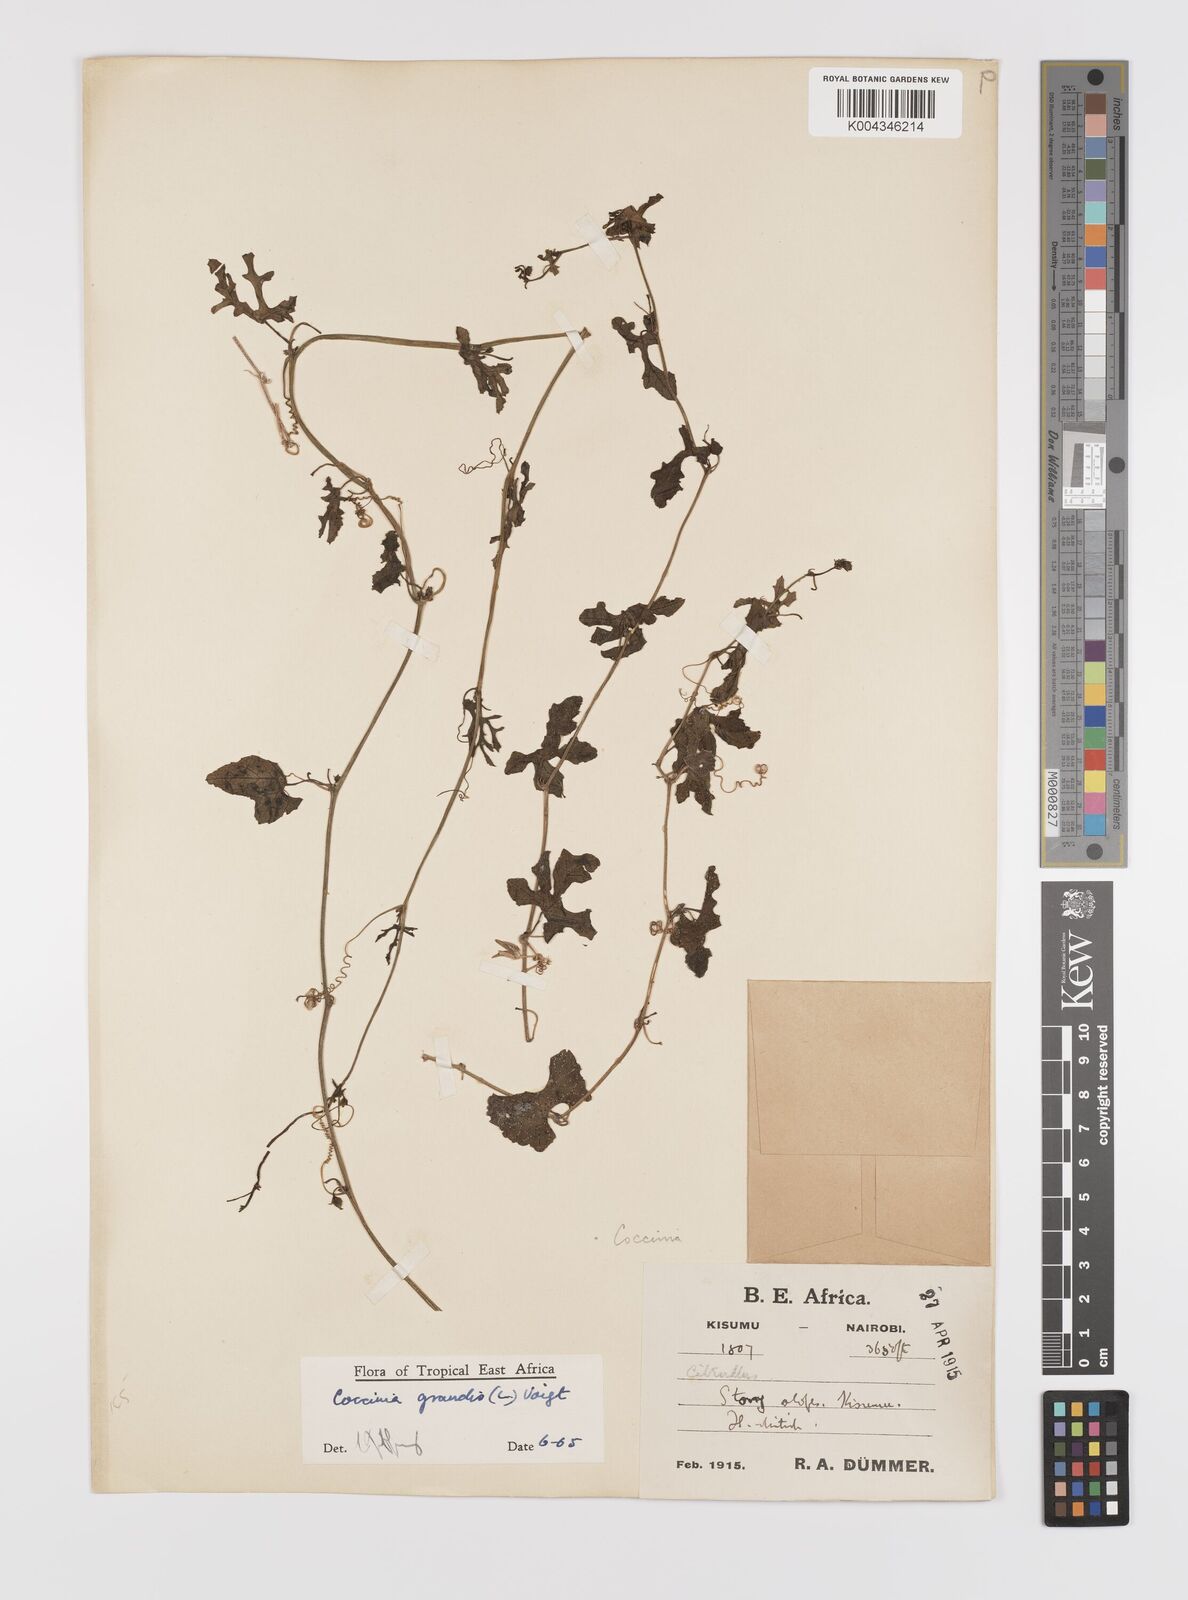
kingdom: Plantae
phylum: Tracheophyta
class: Magnoliopsida
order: Cucurbitales
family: Cucurbitaceae
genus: Coccinia
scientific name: Coccinia grandis
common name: Ivy gourd
